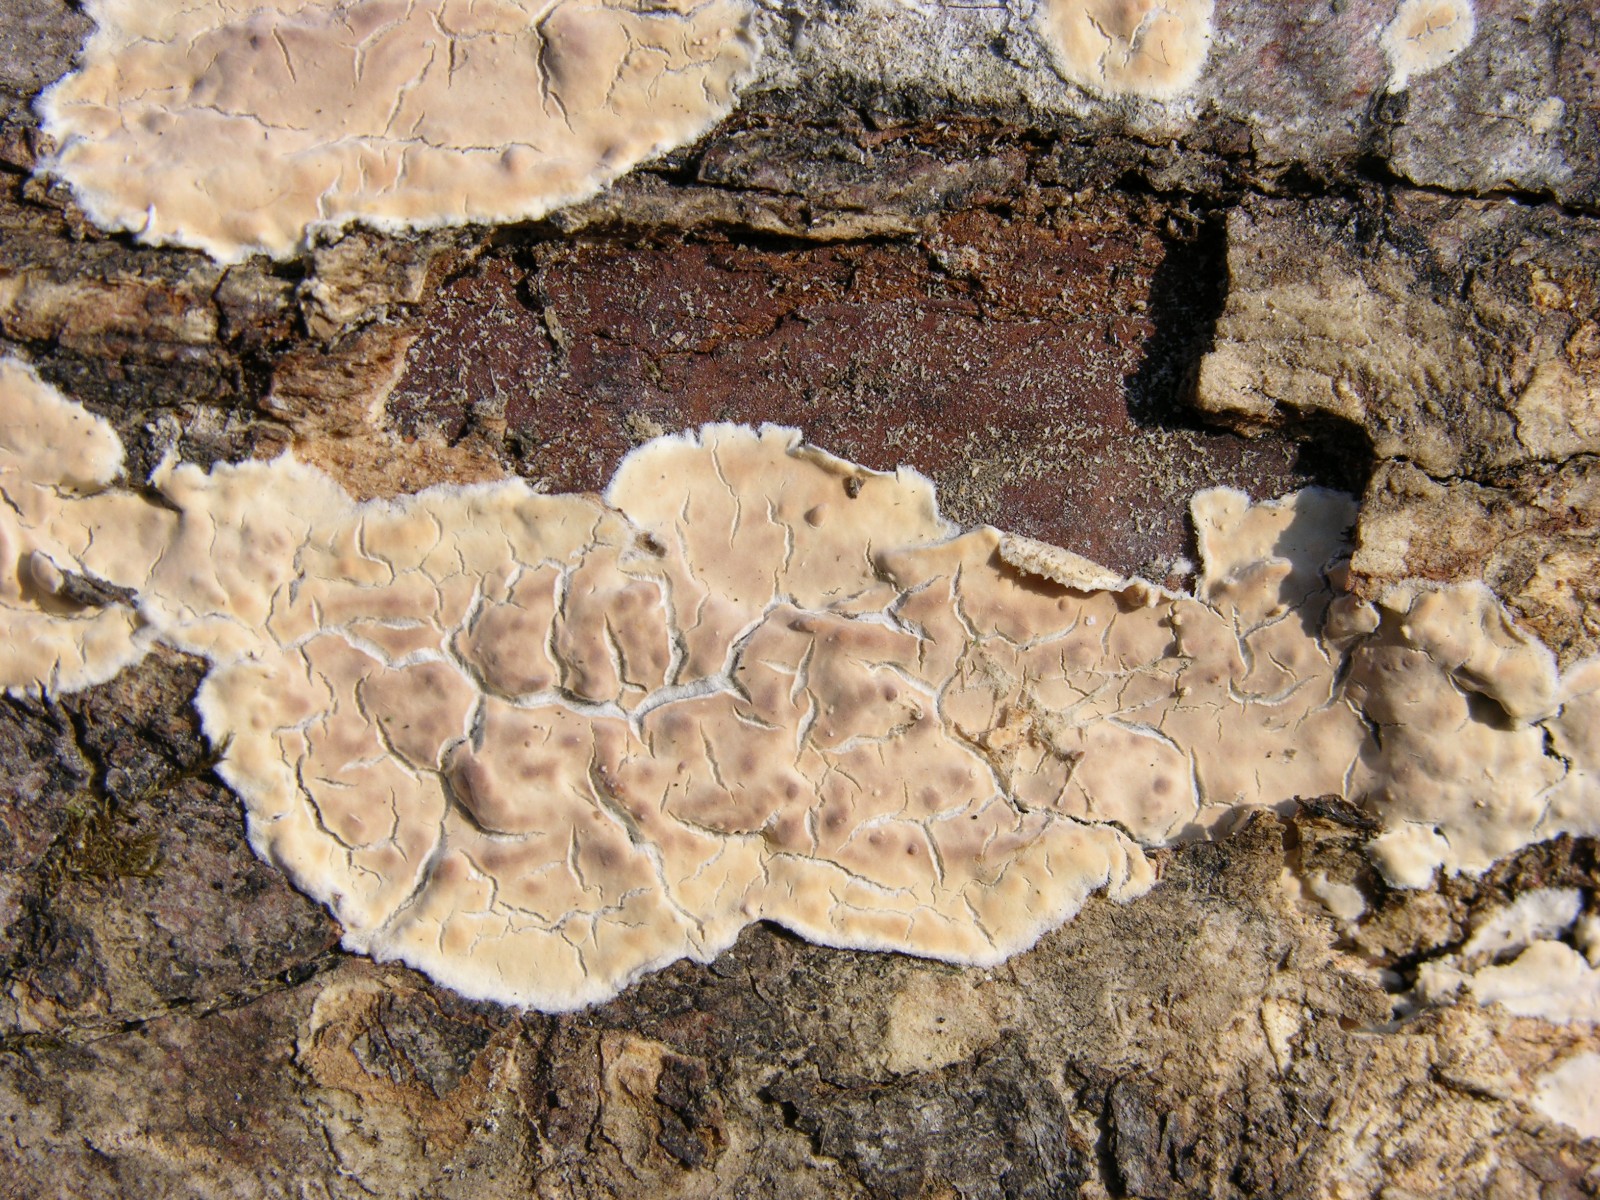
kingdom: Fungi
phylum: Basidiomycota
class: Agaricomycetes
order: Agaricales
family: Physalacriaceae
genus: Cylindrobasidium
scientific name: Cylindrobasidium evolvens
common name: sprækkehinde
